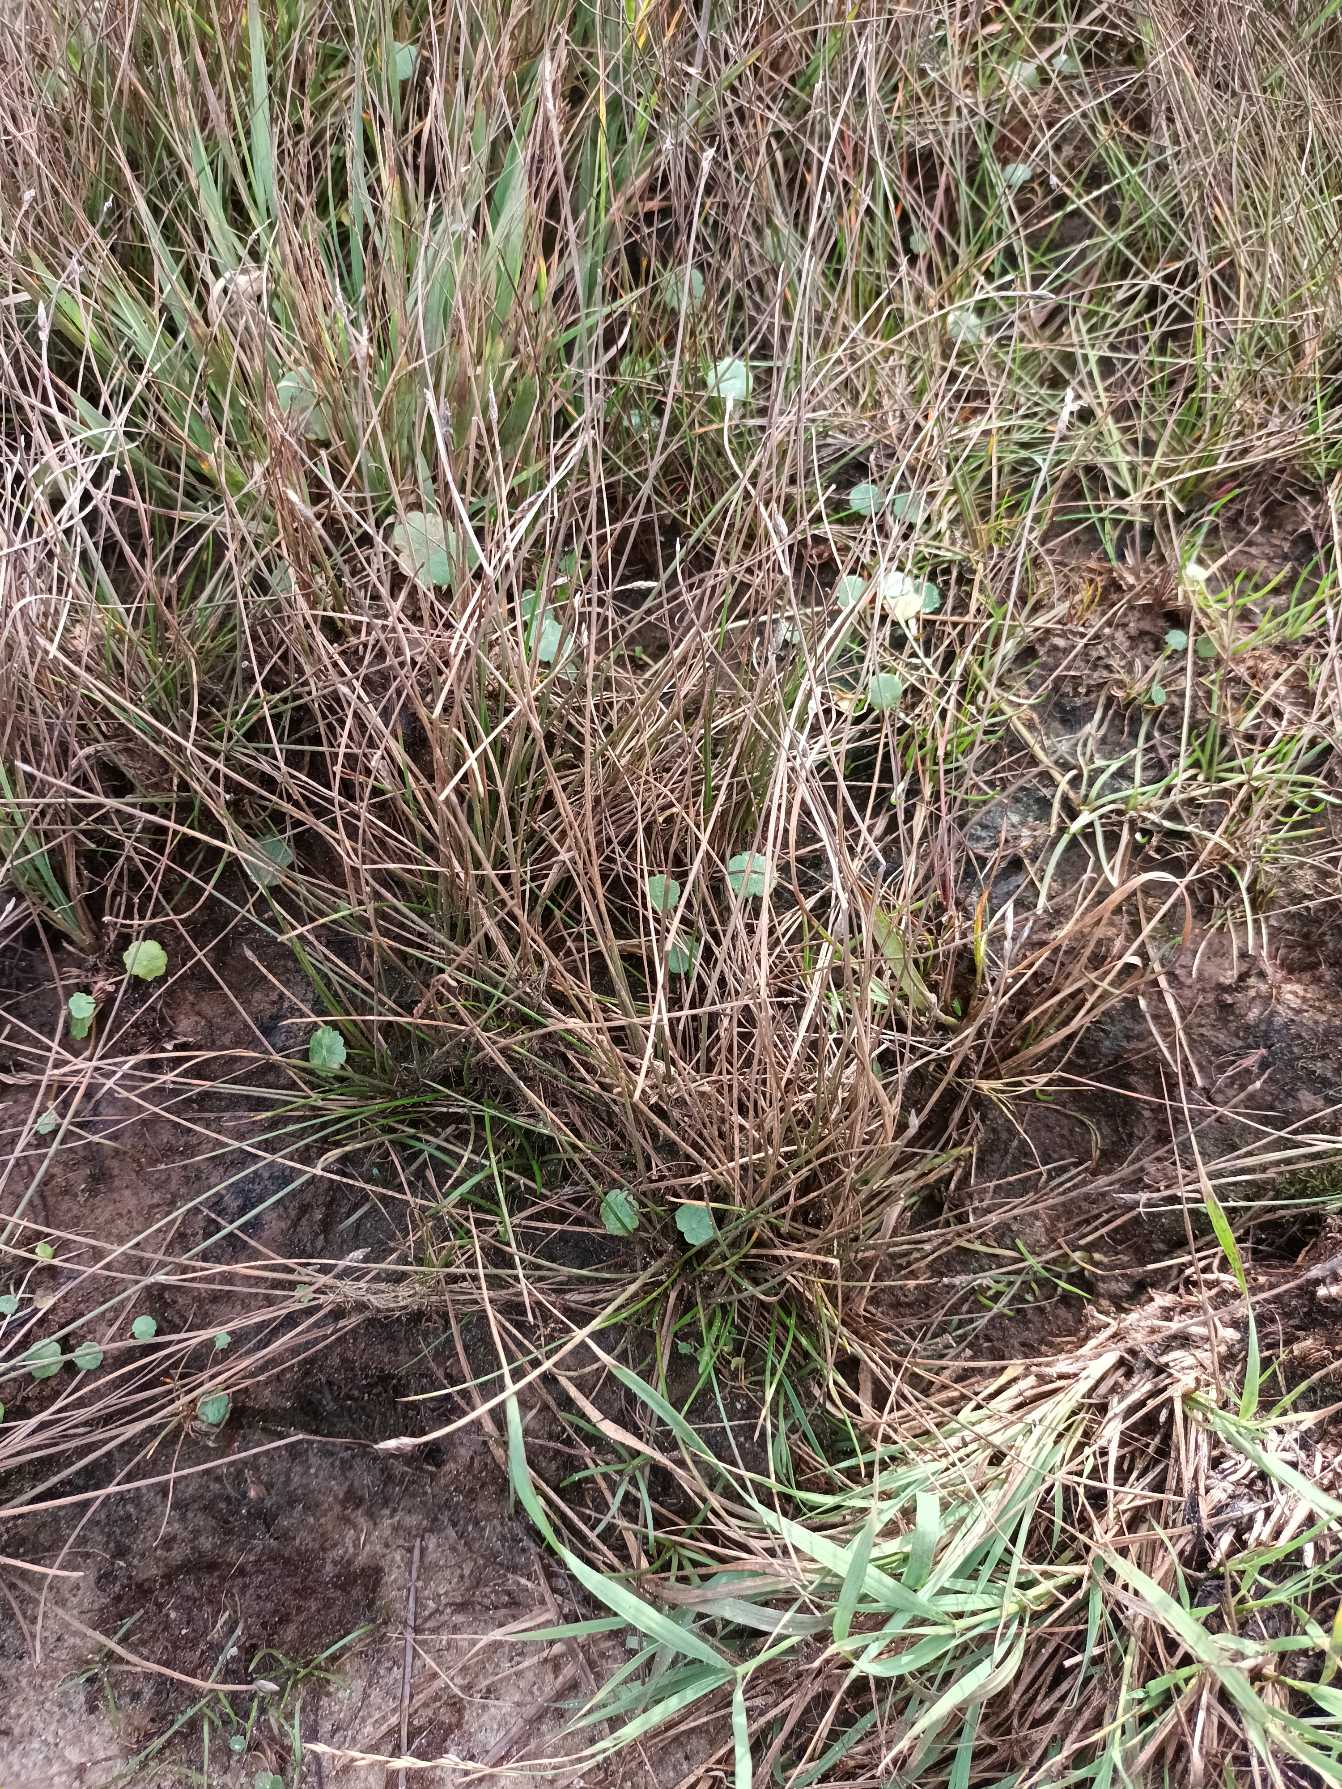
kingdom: Plantae
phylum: Tracheophyta
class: Liliopsida
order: Poales
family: Cyperaceae
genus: Eleocharis
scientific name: Eleocharis multicaulis
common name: Mangestænglet sumpstrå
